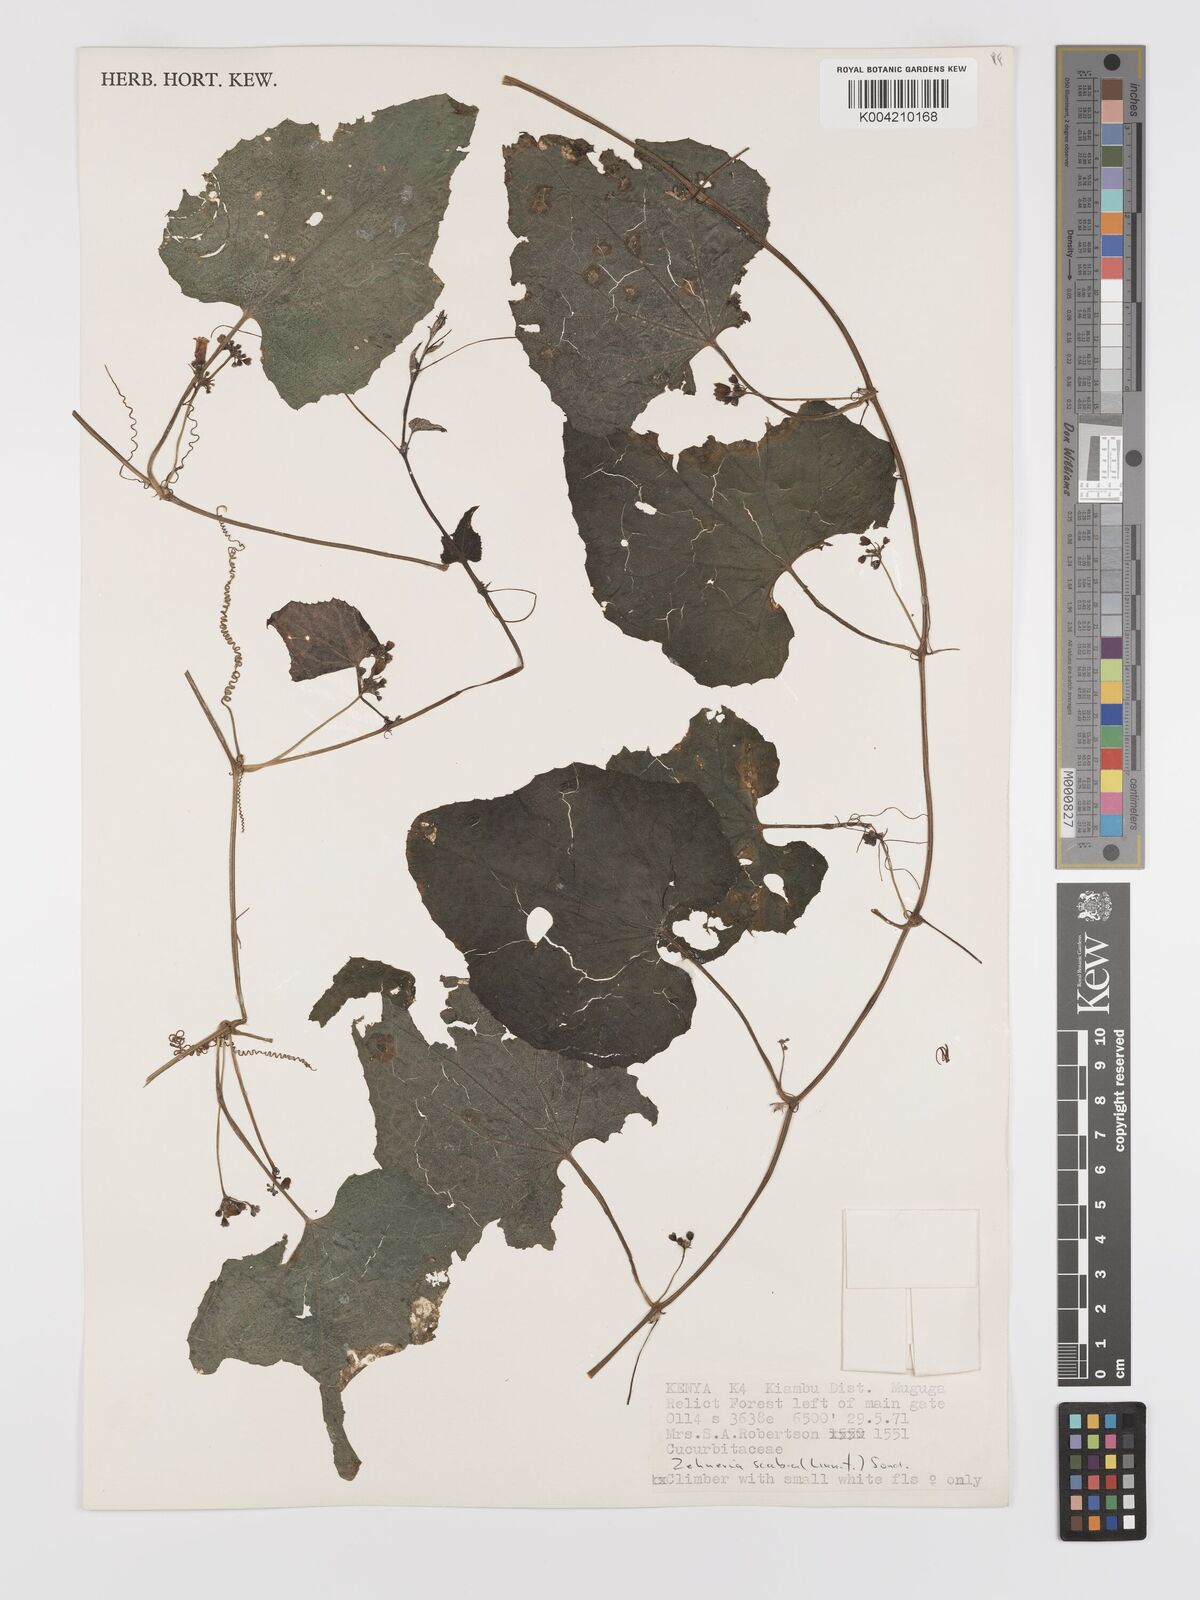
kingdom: Plantae
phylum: Tracheophyta
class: Magnoliopsida
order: Cucurbitales
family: Cucurbitaceae
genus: Zehneria
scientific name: Zehneria scabra
